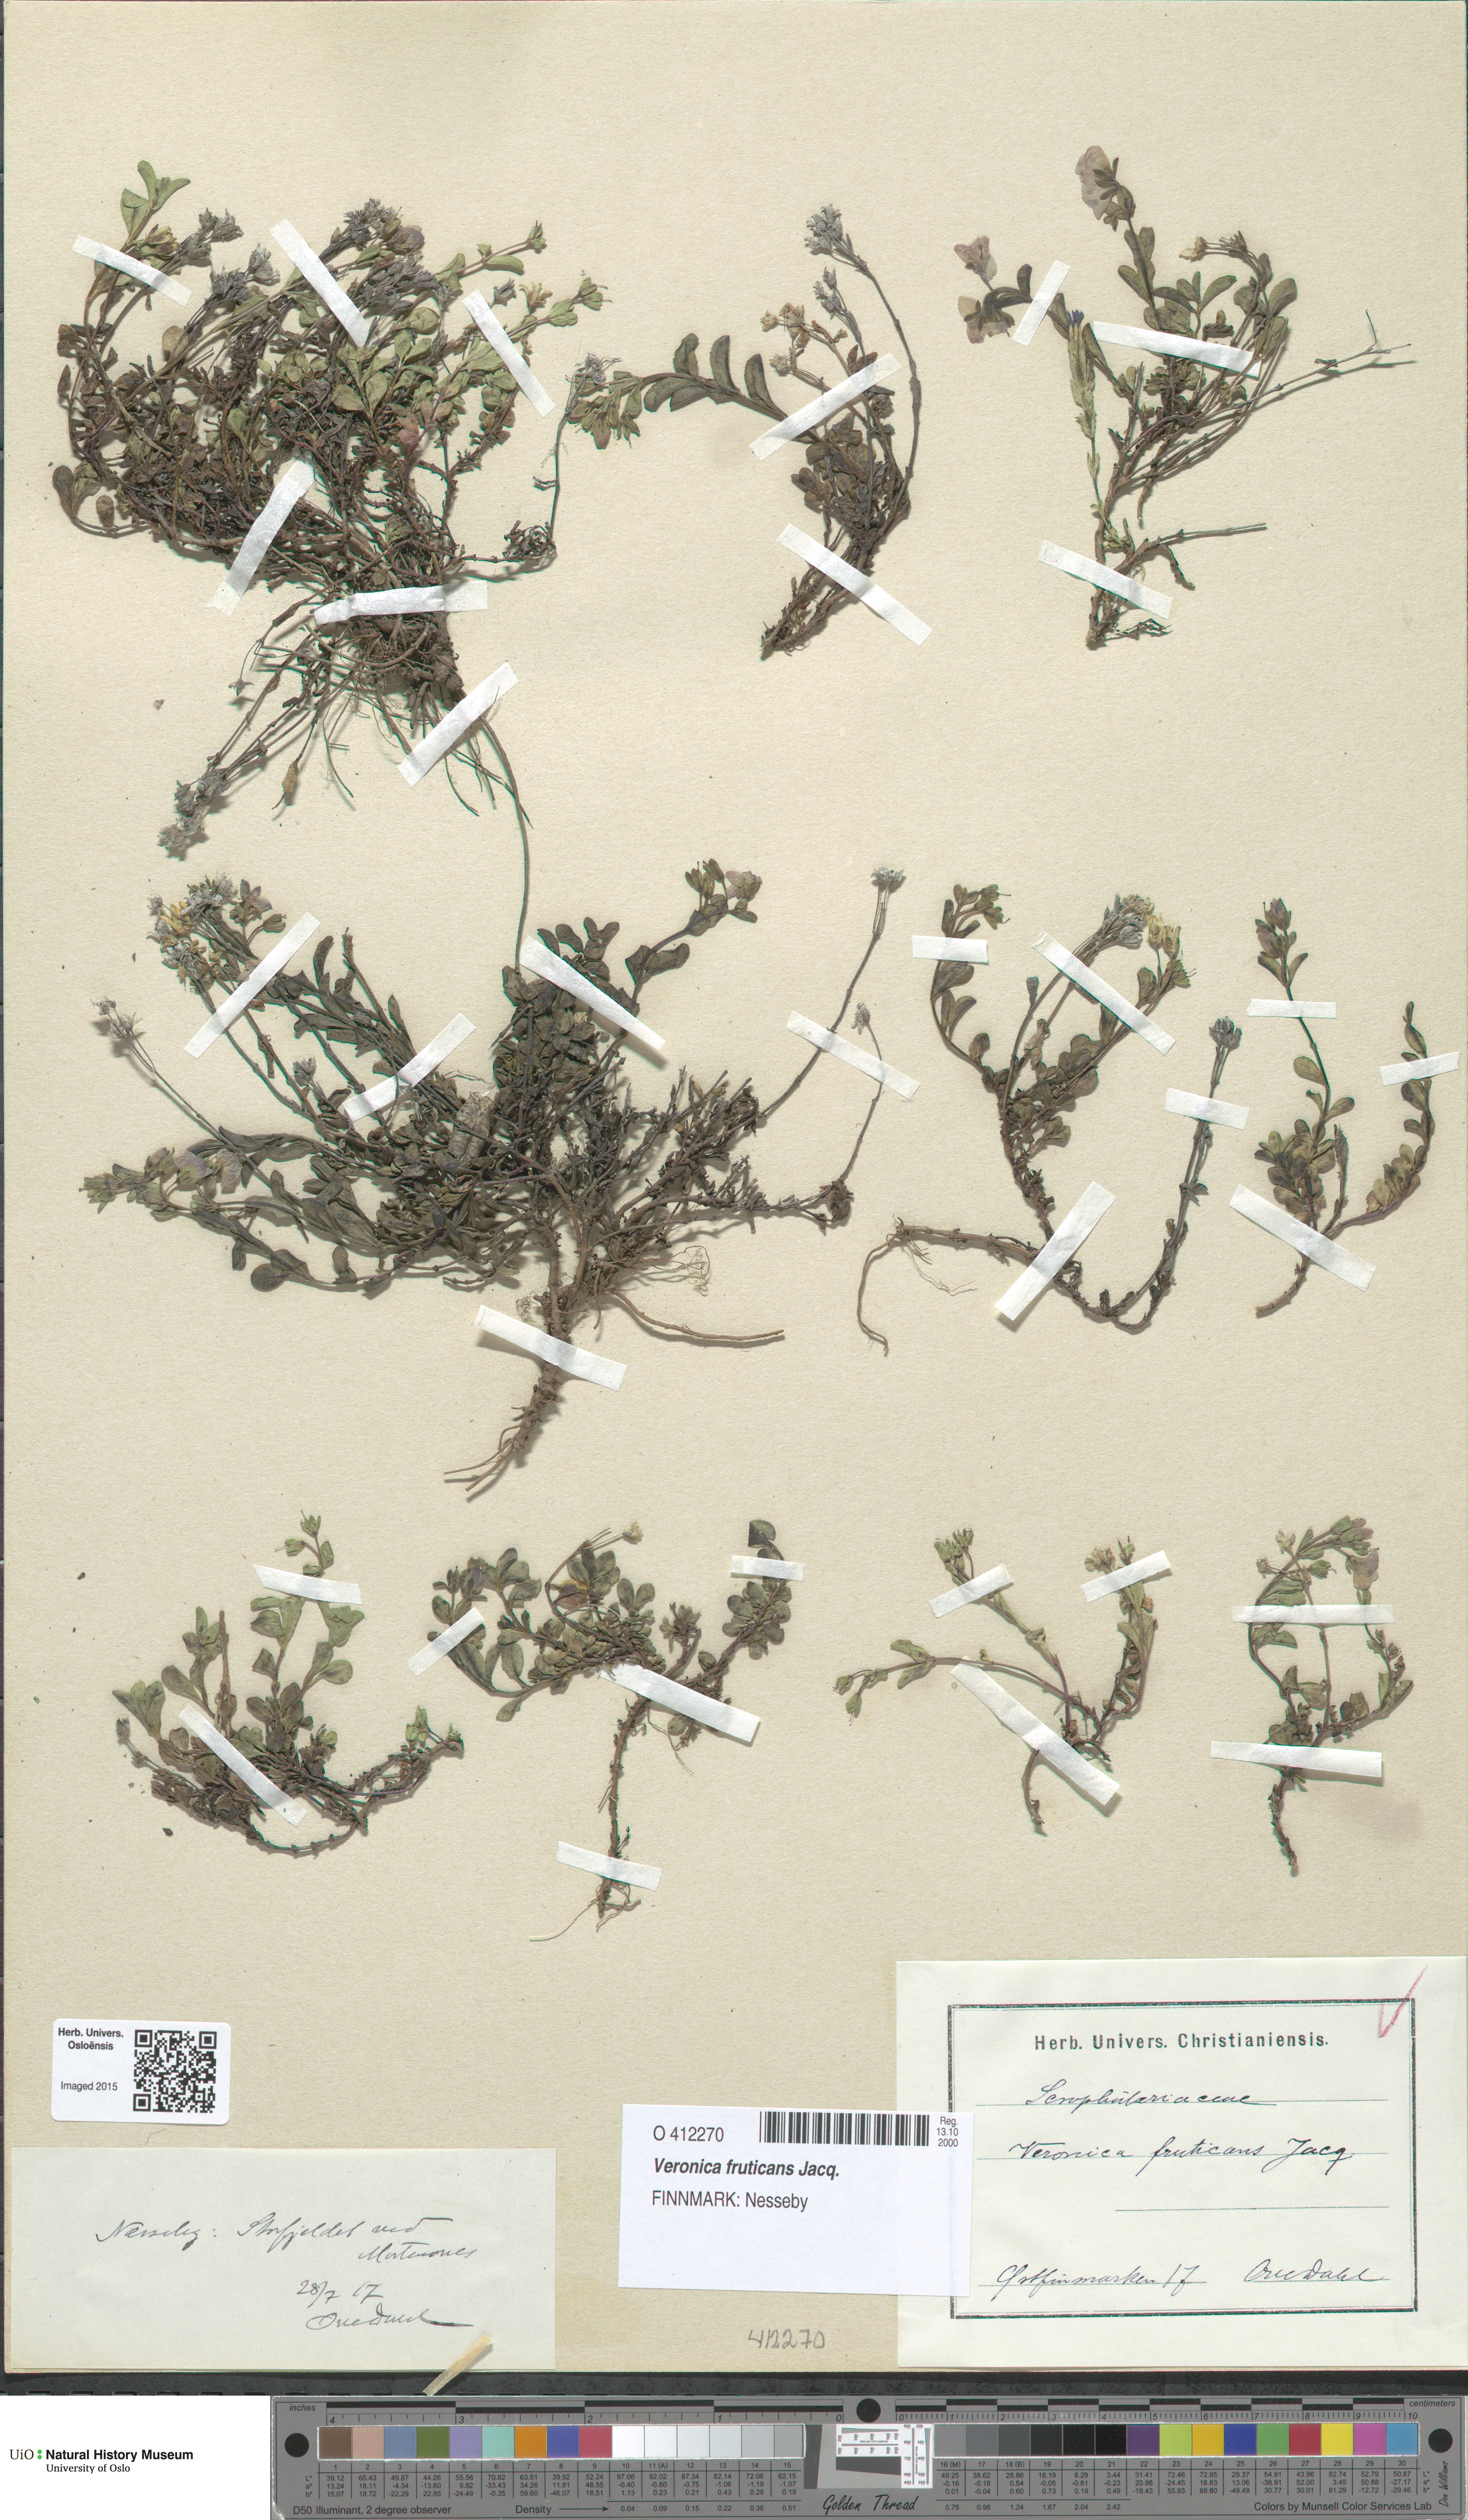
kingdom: Plantae
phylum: Tracheophyta
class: Magnoliopsida
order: Lamiales
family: Plantaginaceae
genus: Veronica
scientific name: Veronica fruticans
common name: Rock speedwell
